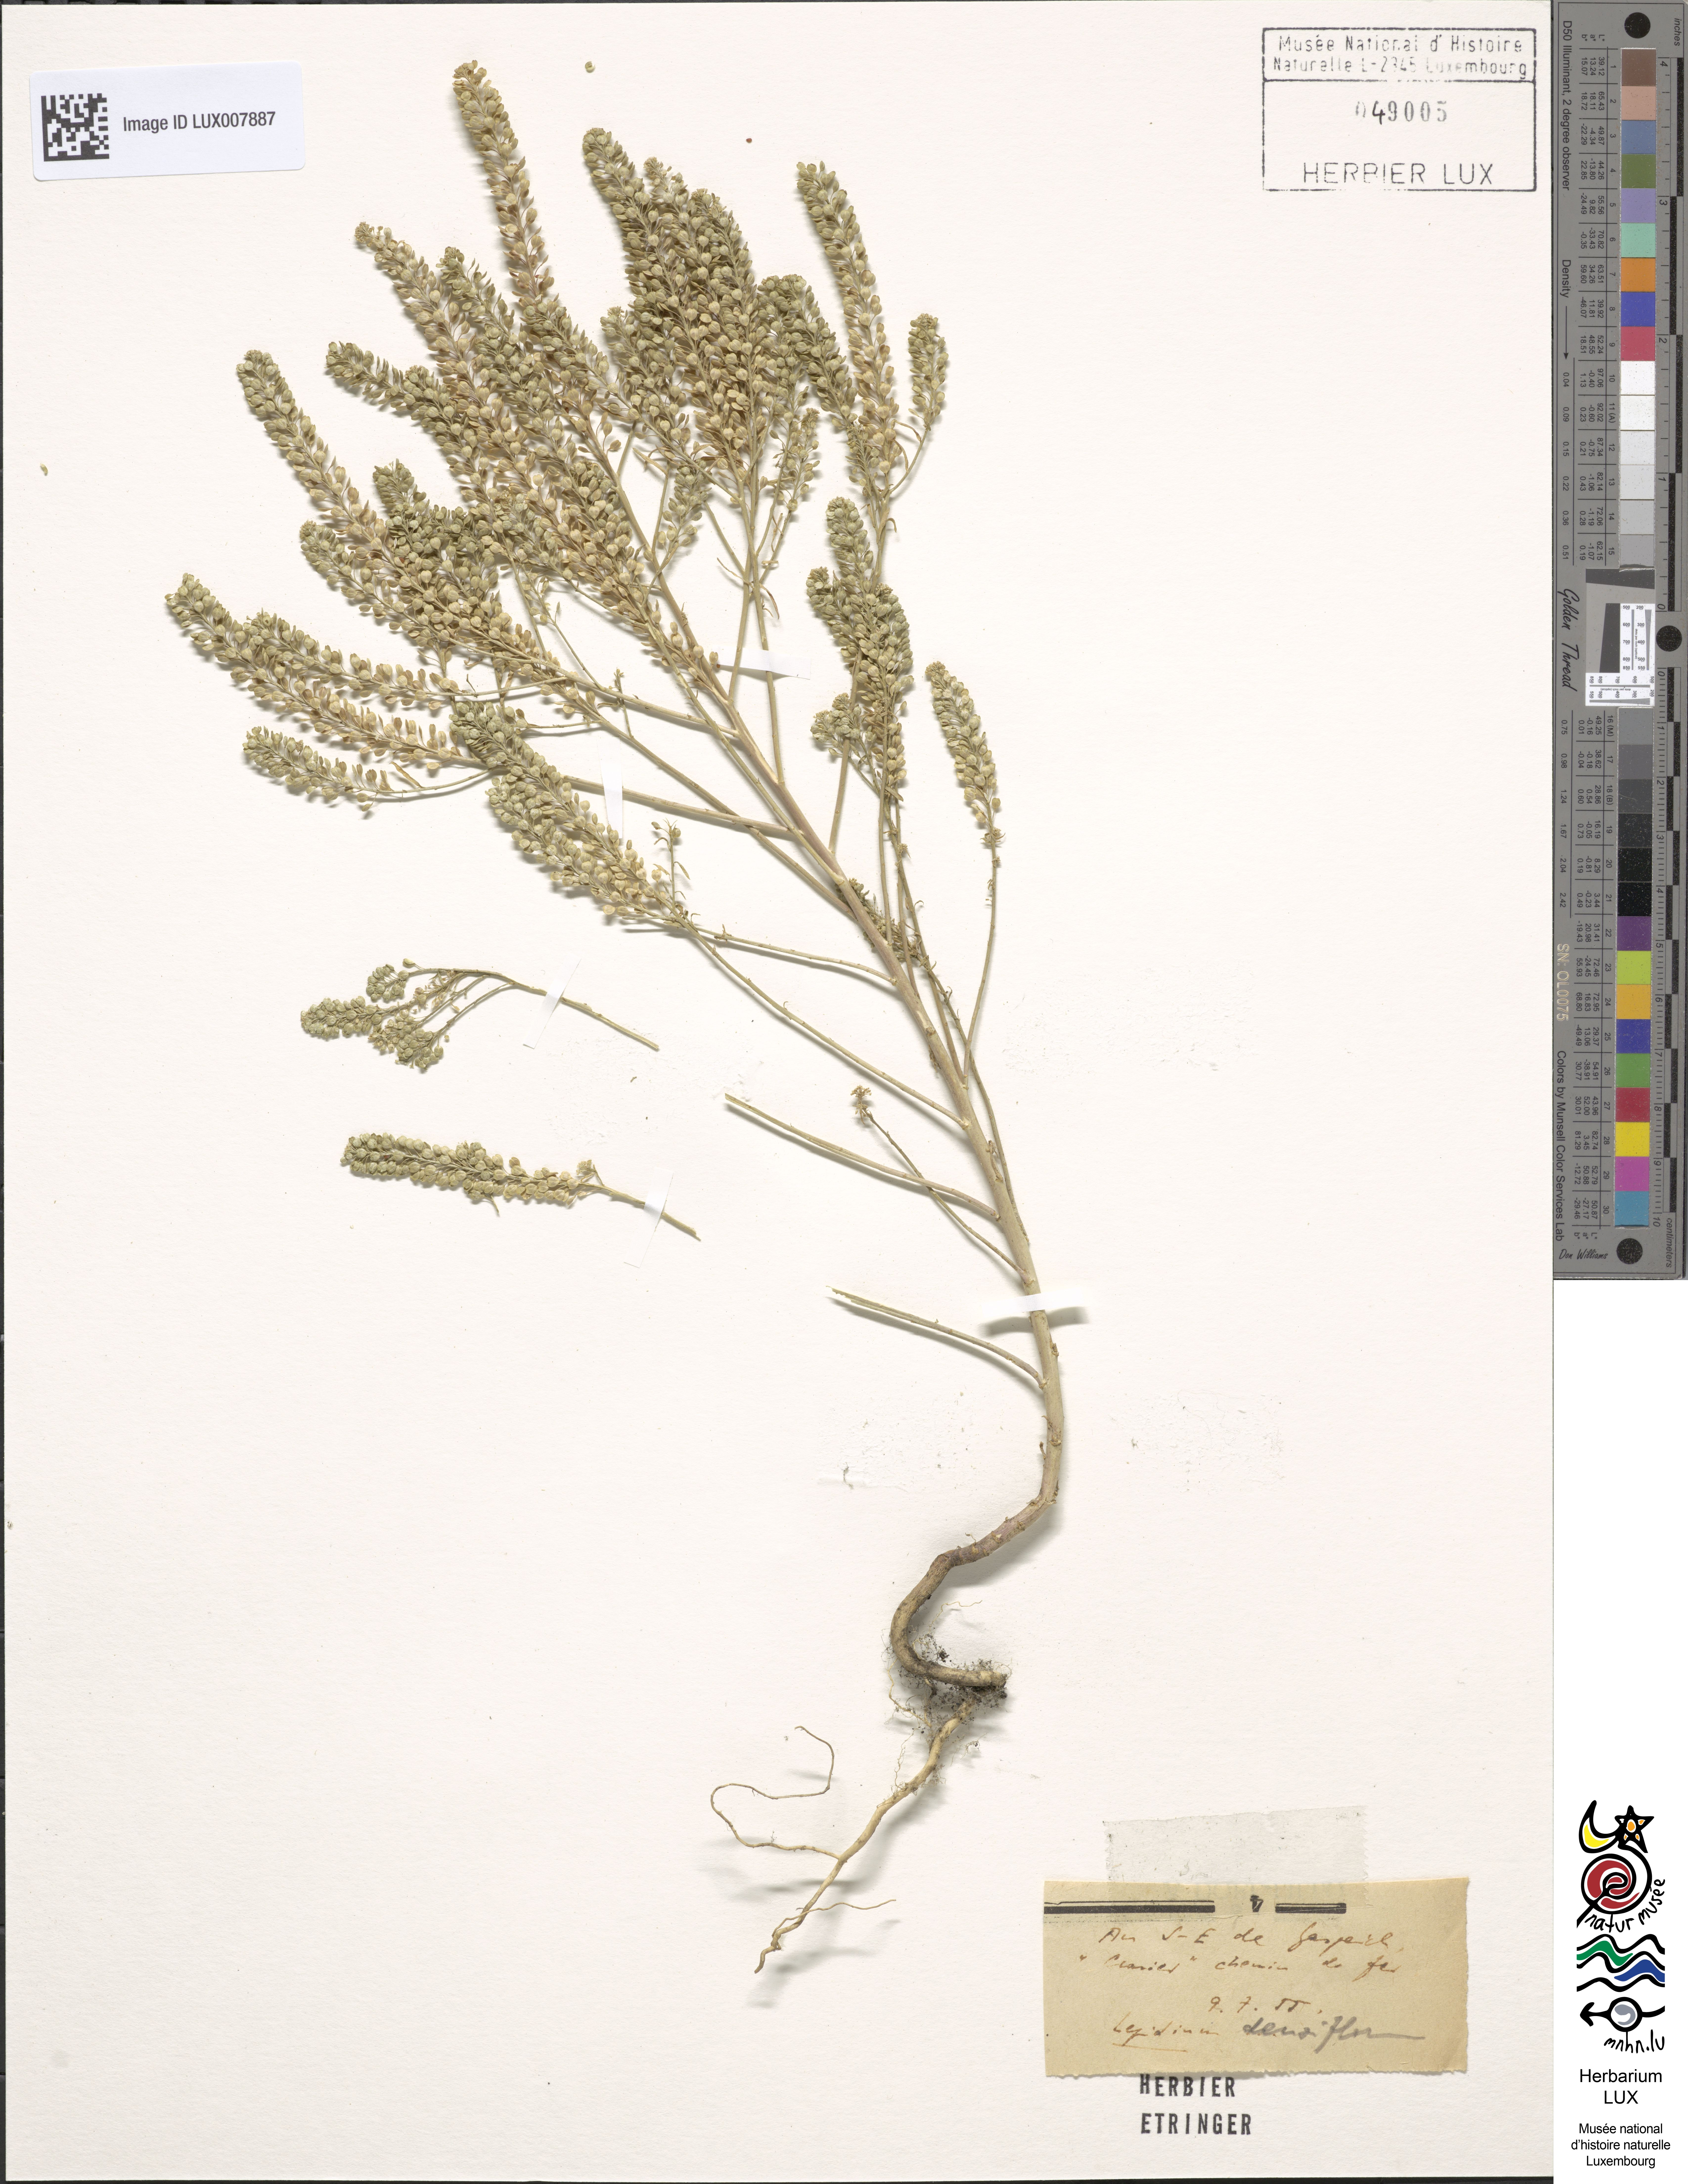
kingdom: Plantae
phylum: Tracheophyta
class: Magnoliopsida
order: Brassicales
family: Brassicaceae
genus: Lepidium
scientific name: Lepidium densiflorum
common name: Miner's pepperwort
